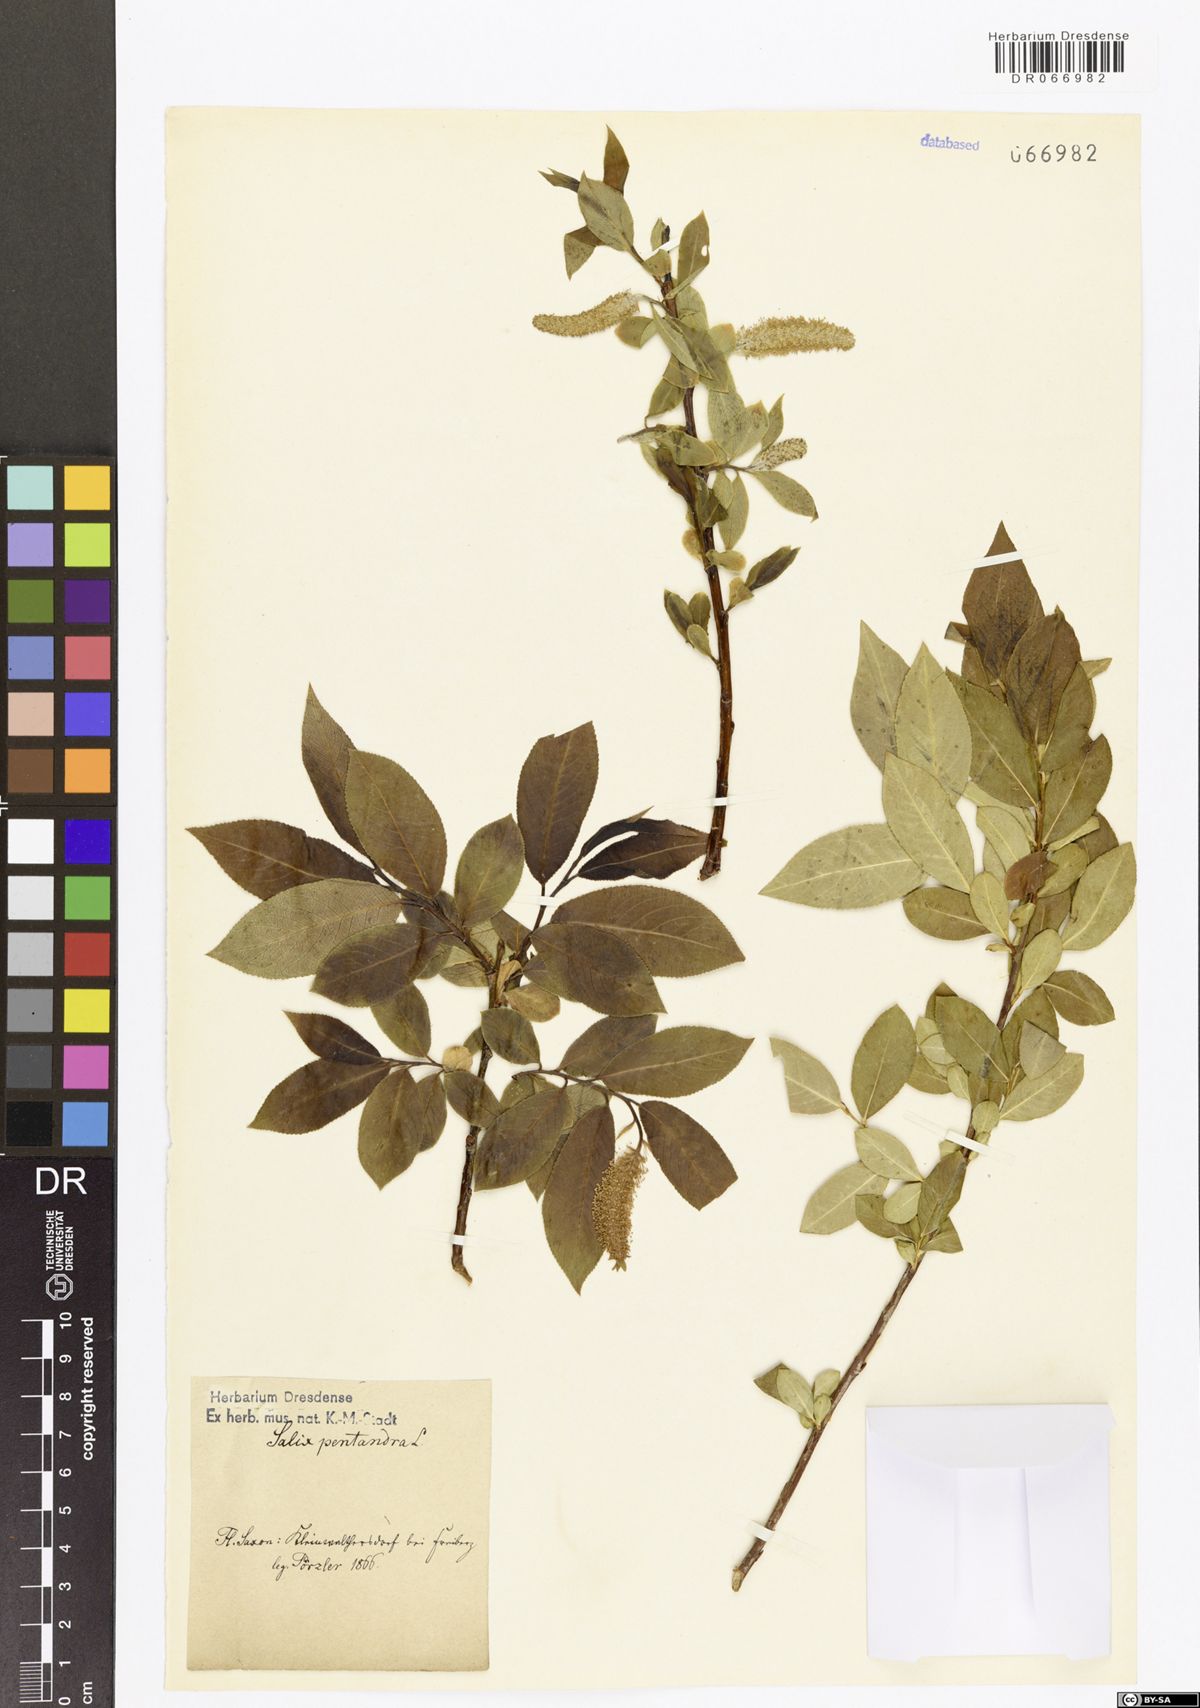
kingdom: Plantae
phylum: Tracheophyta
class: Magnoliopsida
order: Malpighiales
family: Salicaceae
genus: Salix
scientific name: Salix pentandra
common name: Bay willow
